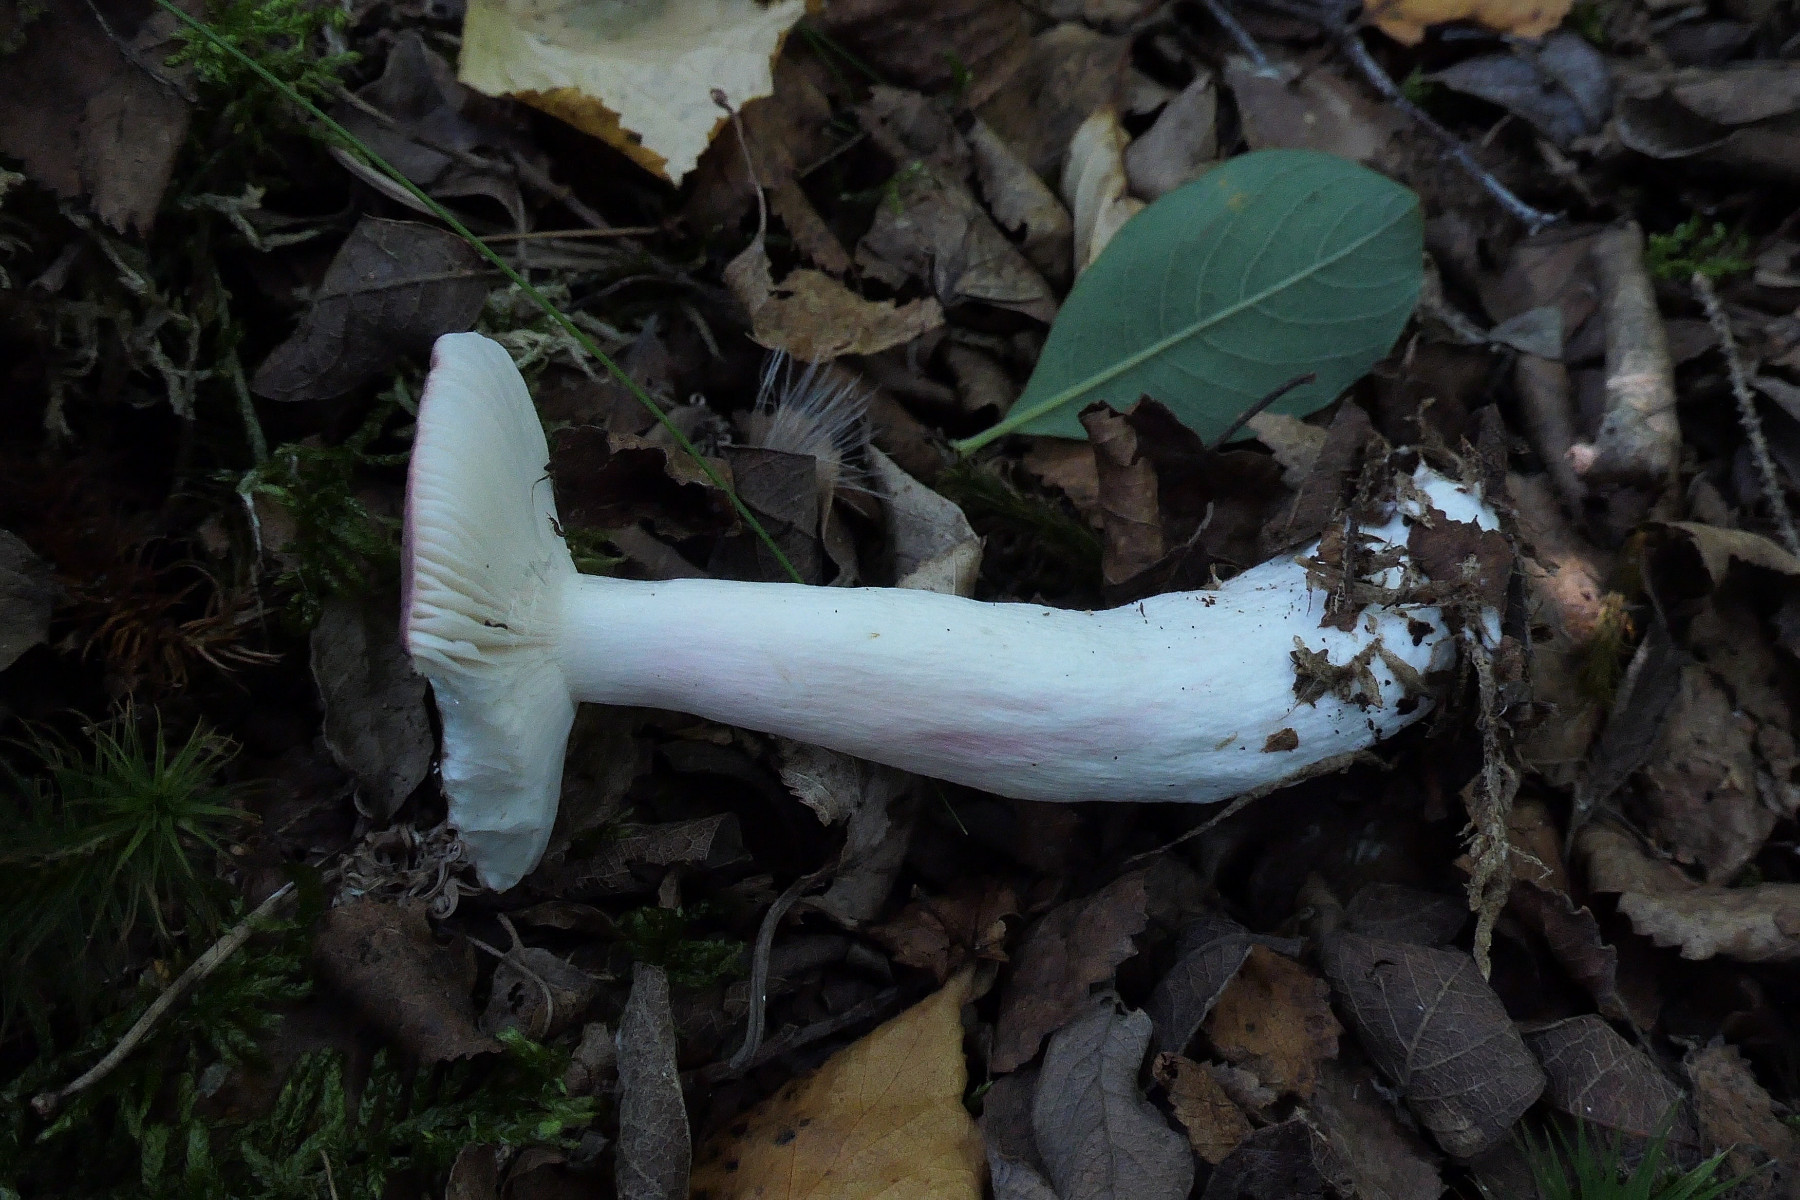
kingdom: Fungi
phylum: Basidiomycota
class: Agaricomycetes
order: Russulales
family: Russulaceae
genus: Russula
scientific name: Russula gracillima
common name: slank skørhat
